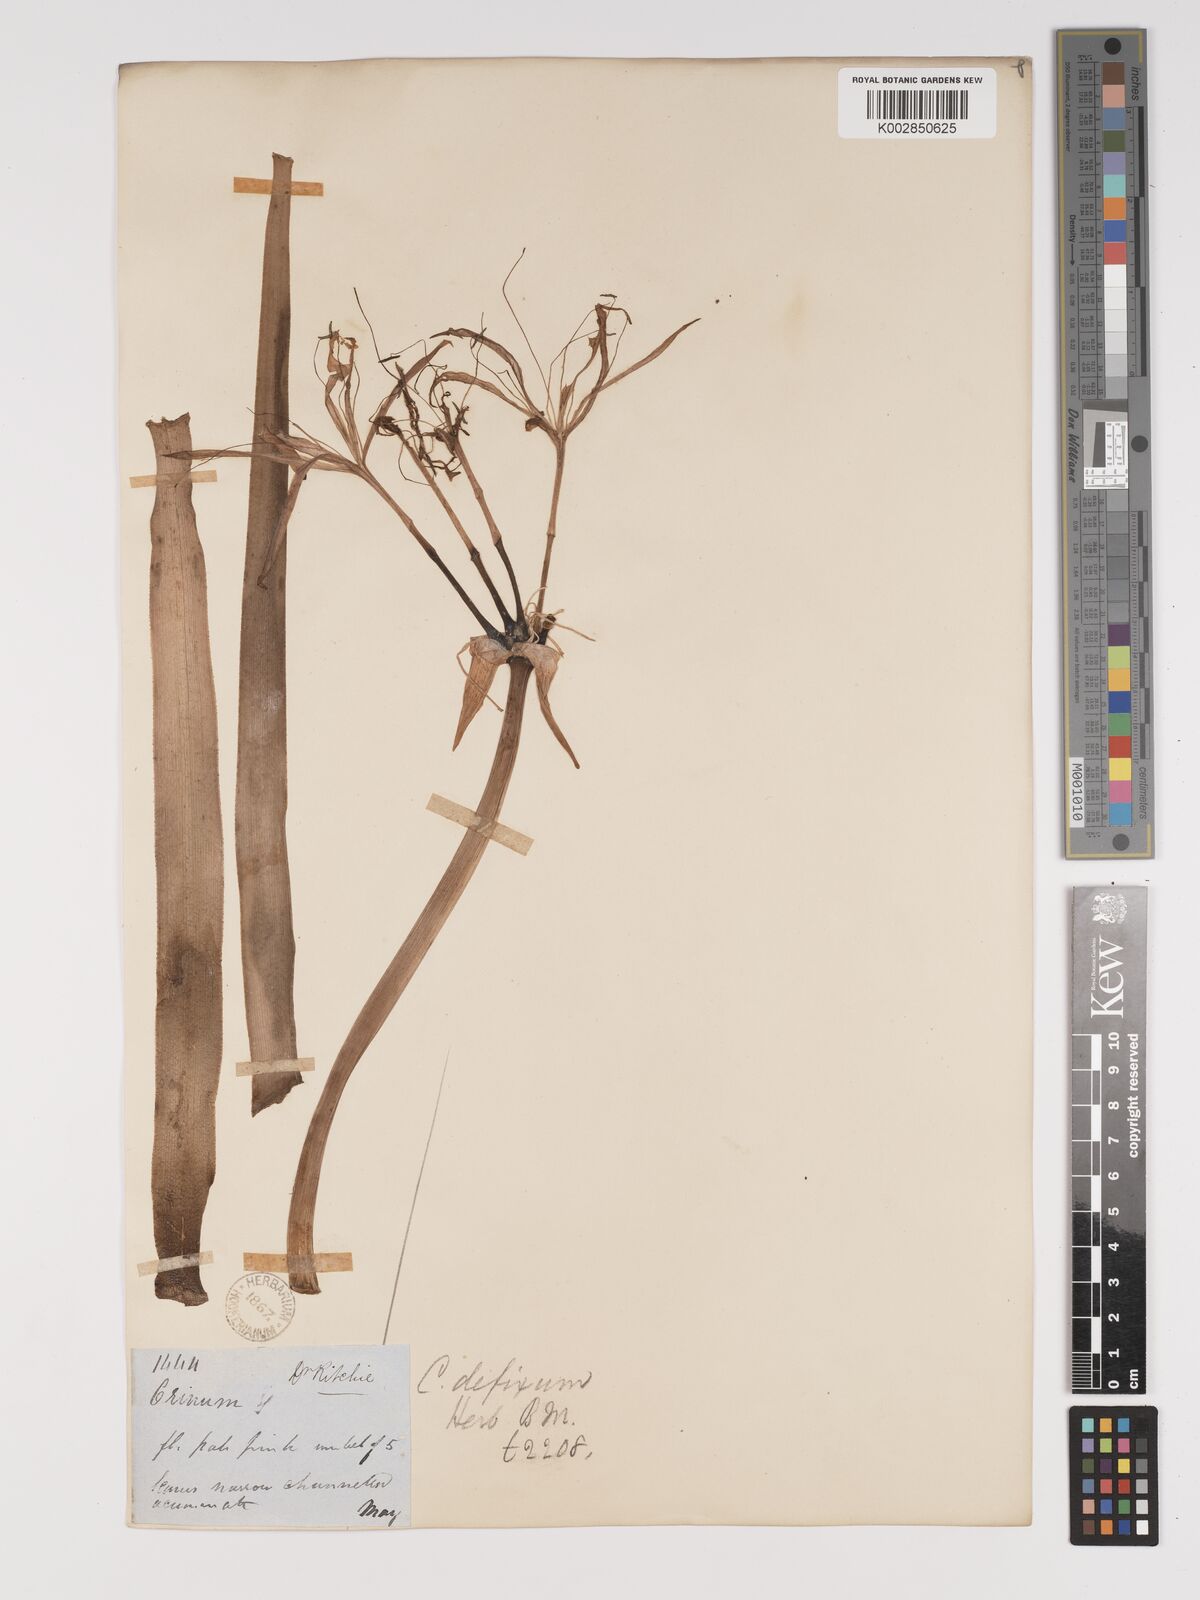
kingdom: Plantae
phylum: Tracheophyta
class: Liliopsida
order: Asparagales
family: Amaryllidaceae
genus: Crinum
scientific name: Crinum defixum
